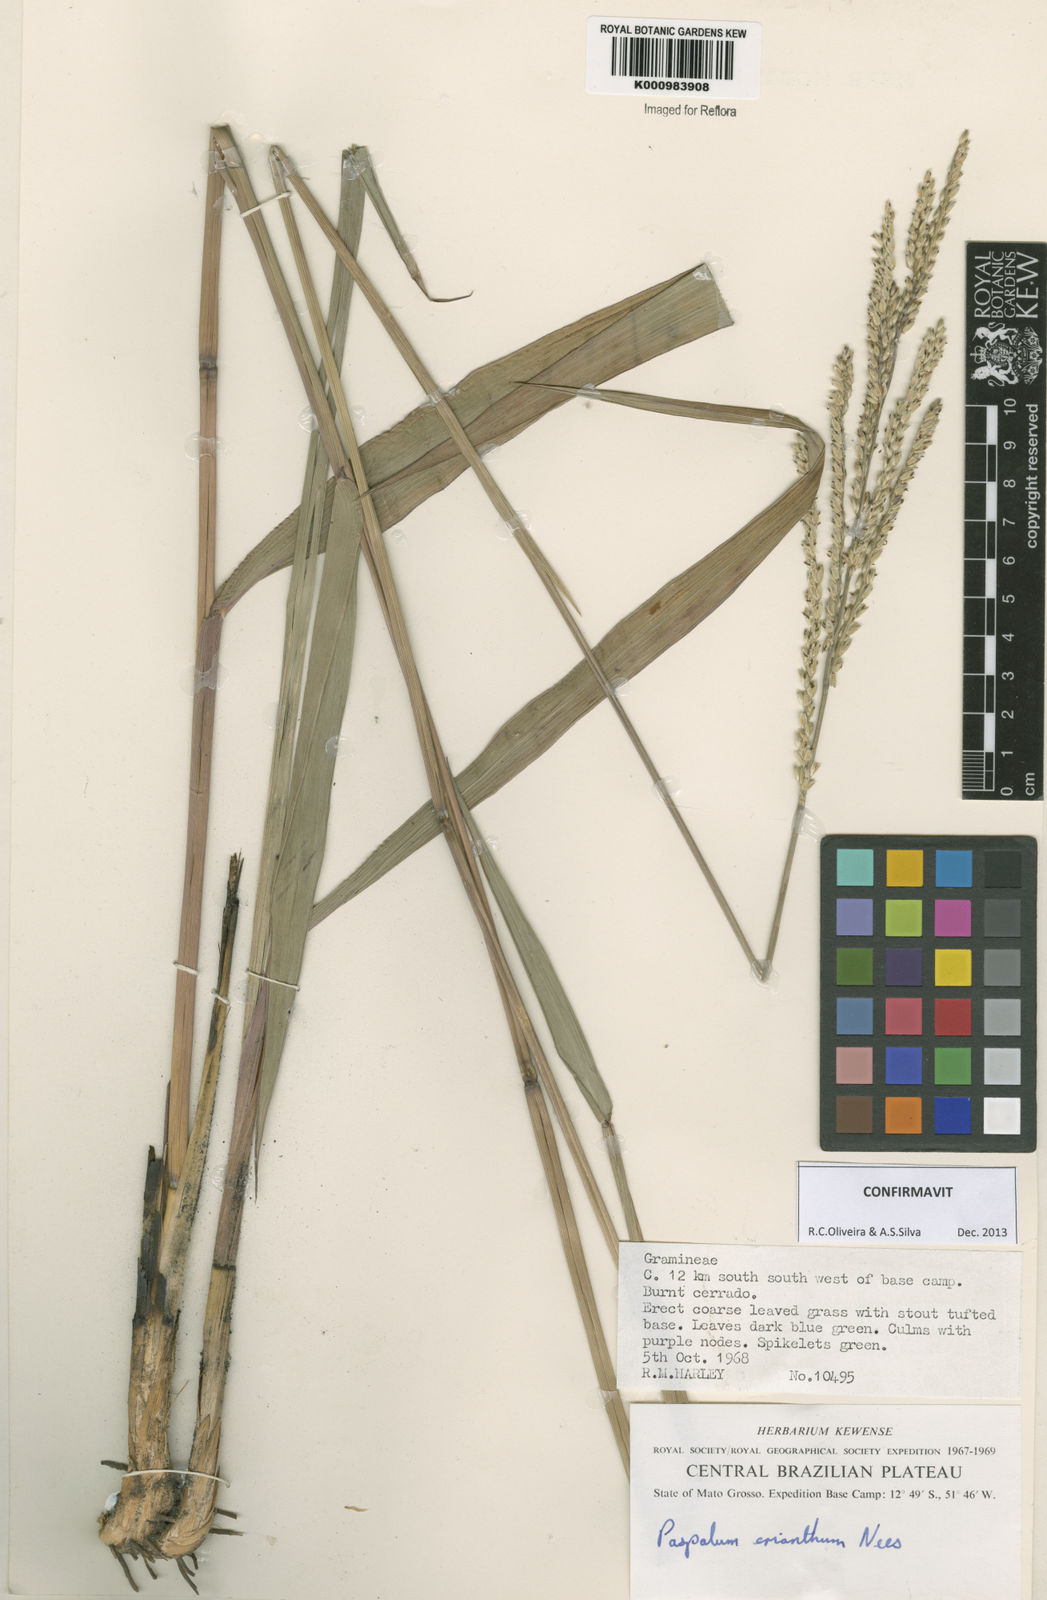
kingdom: Plantae
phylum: Tracheophyta
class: Liliopsida
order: Poales
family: Poaceae
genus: Paspalum
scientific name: Paspalum erianthum
